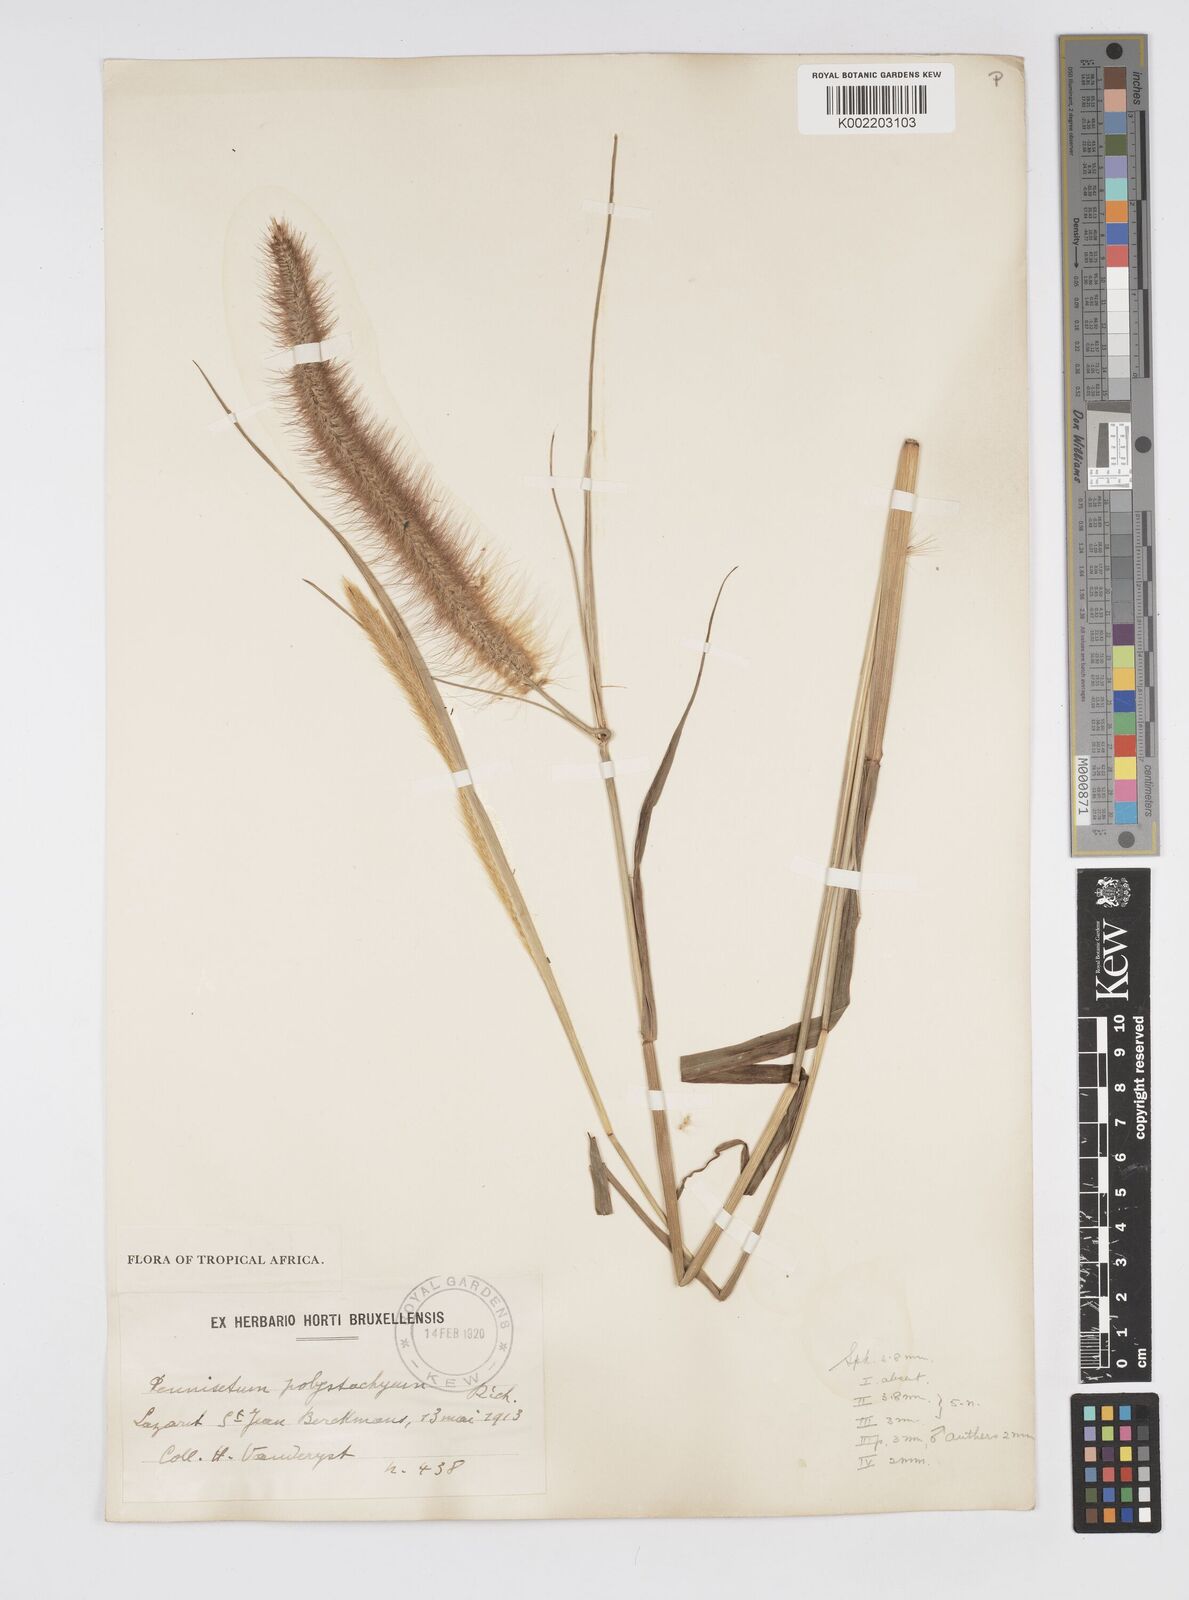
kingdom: Plantae
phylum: Tracheophyta
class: Liliopsida
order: Poales
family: Poaceae
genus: Setaria
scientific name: Setaria parviflora
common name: Knotroot bristle-grass
